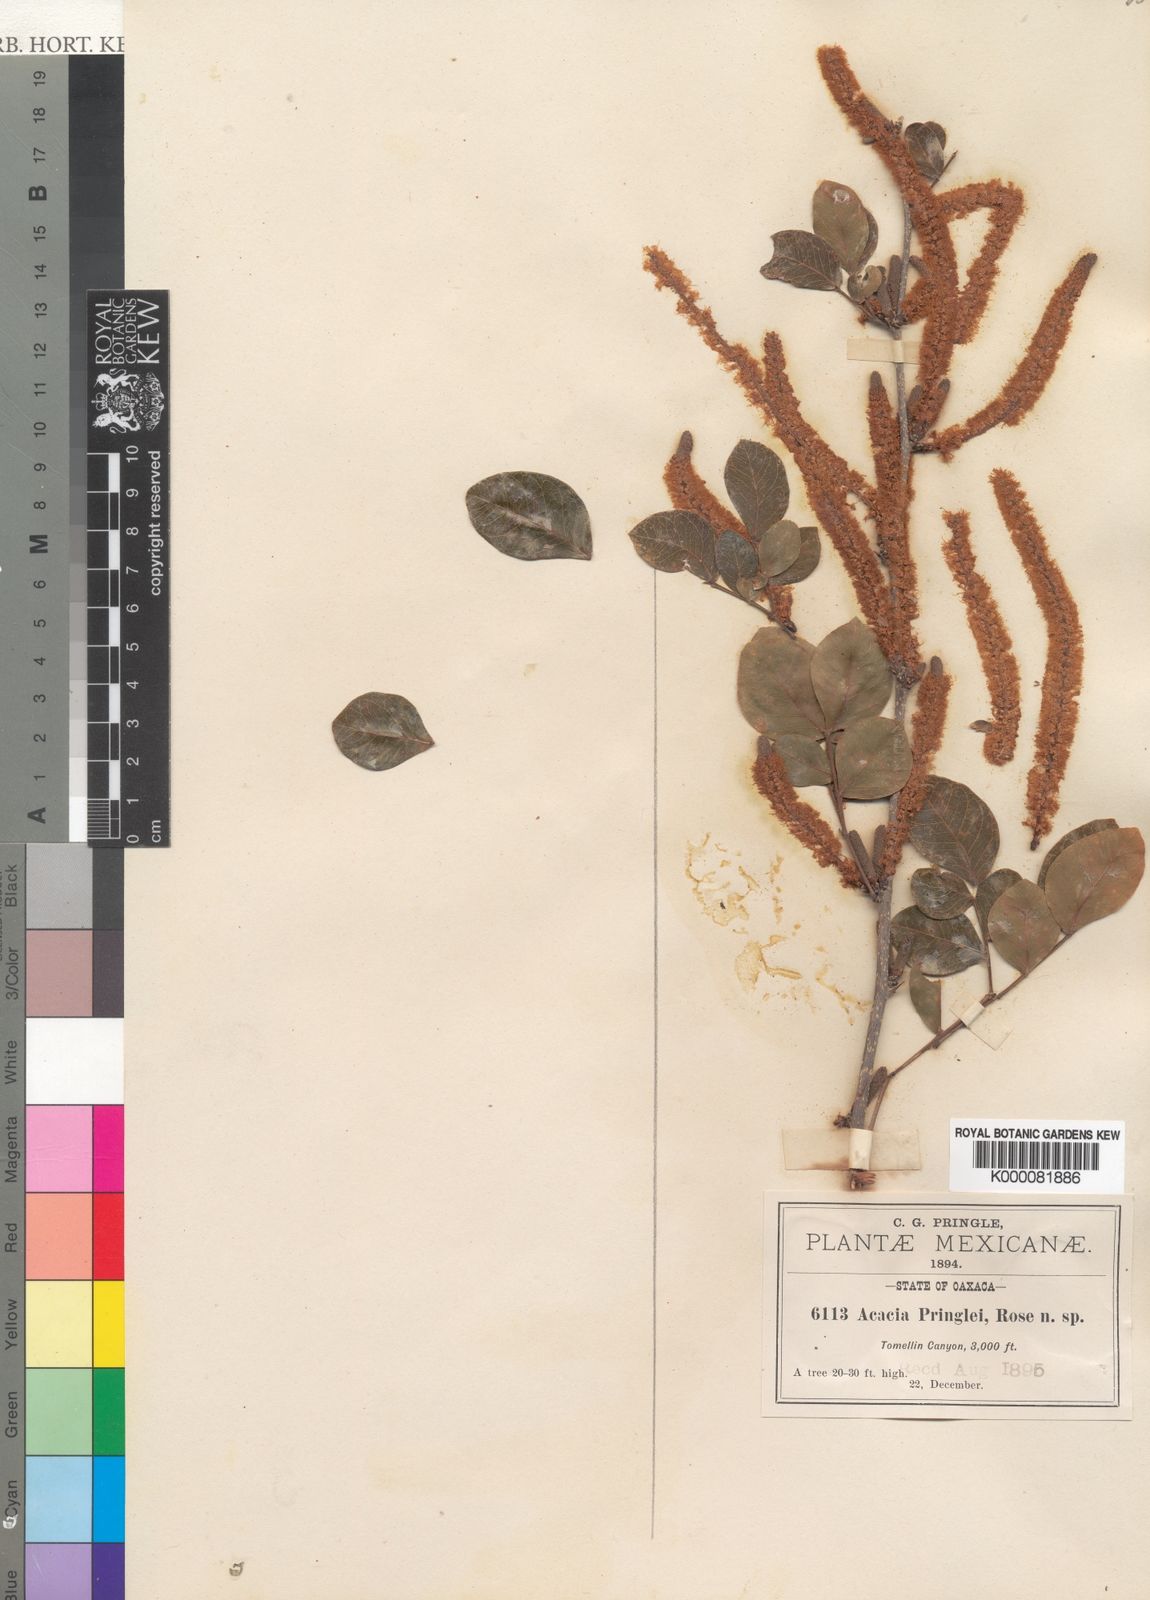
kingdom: Plantae
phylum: Tracheophyta
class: Magnoliopsida
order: Fabales
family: Fabaceae
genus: Vachellia
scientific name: Vachellia pringlei
